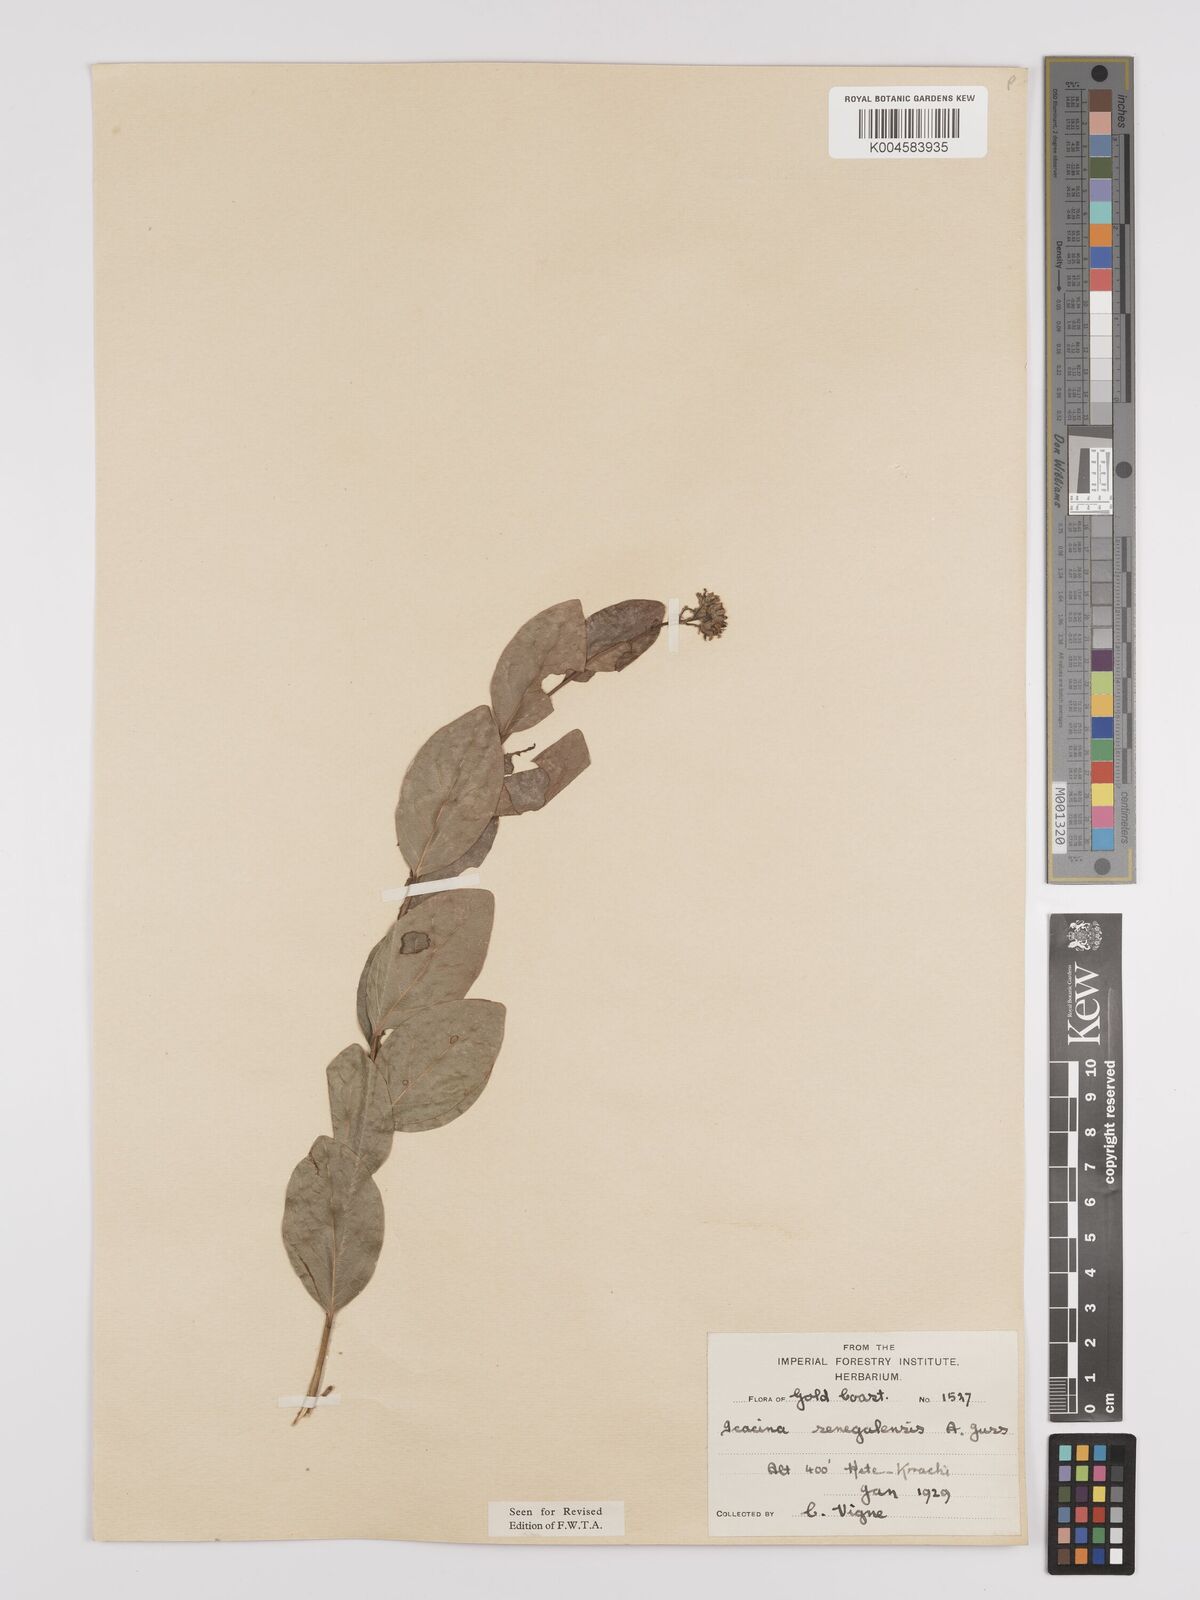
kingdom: Plantae
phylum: Tracheophyta
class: Magnoliopsida
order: Icacinales
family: Icacinaceae
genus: Icacina
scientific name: Icacina oliviformis
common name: False yam
